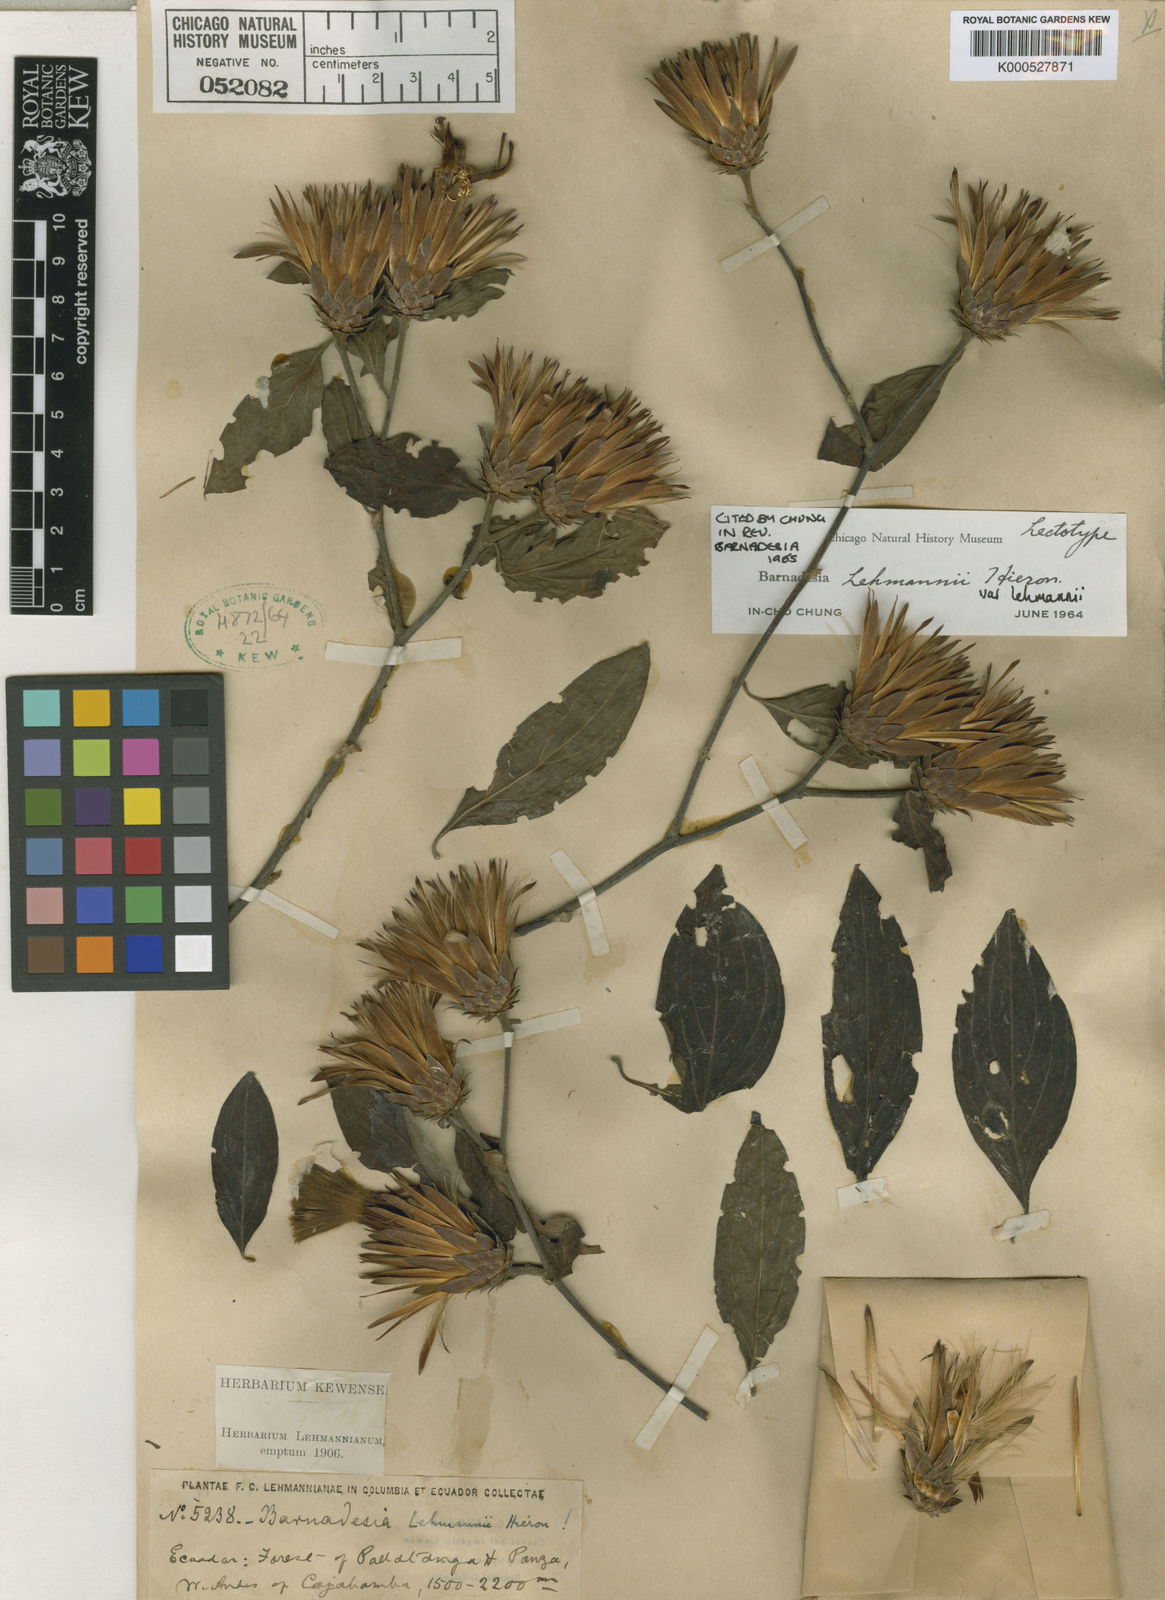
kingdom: Plantae
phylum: Tracheophyta
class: Magnoliopsida
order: Asterales
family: Asteraceae
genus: Barnadesia
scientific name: Barnadesia lehmannii
